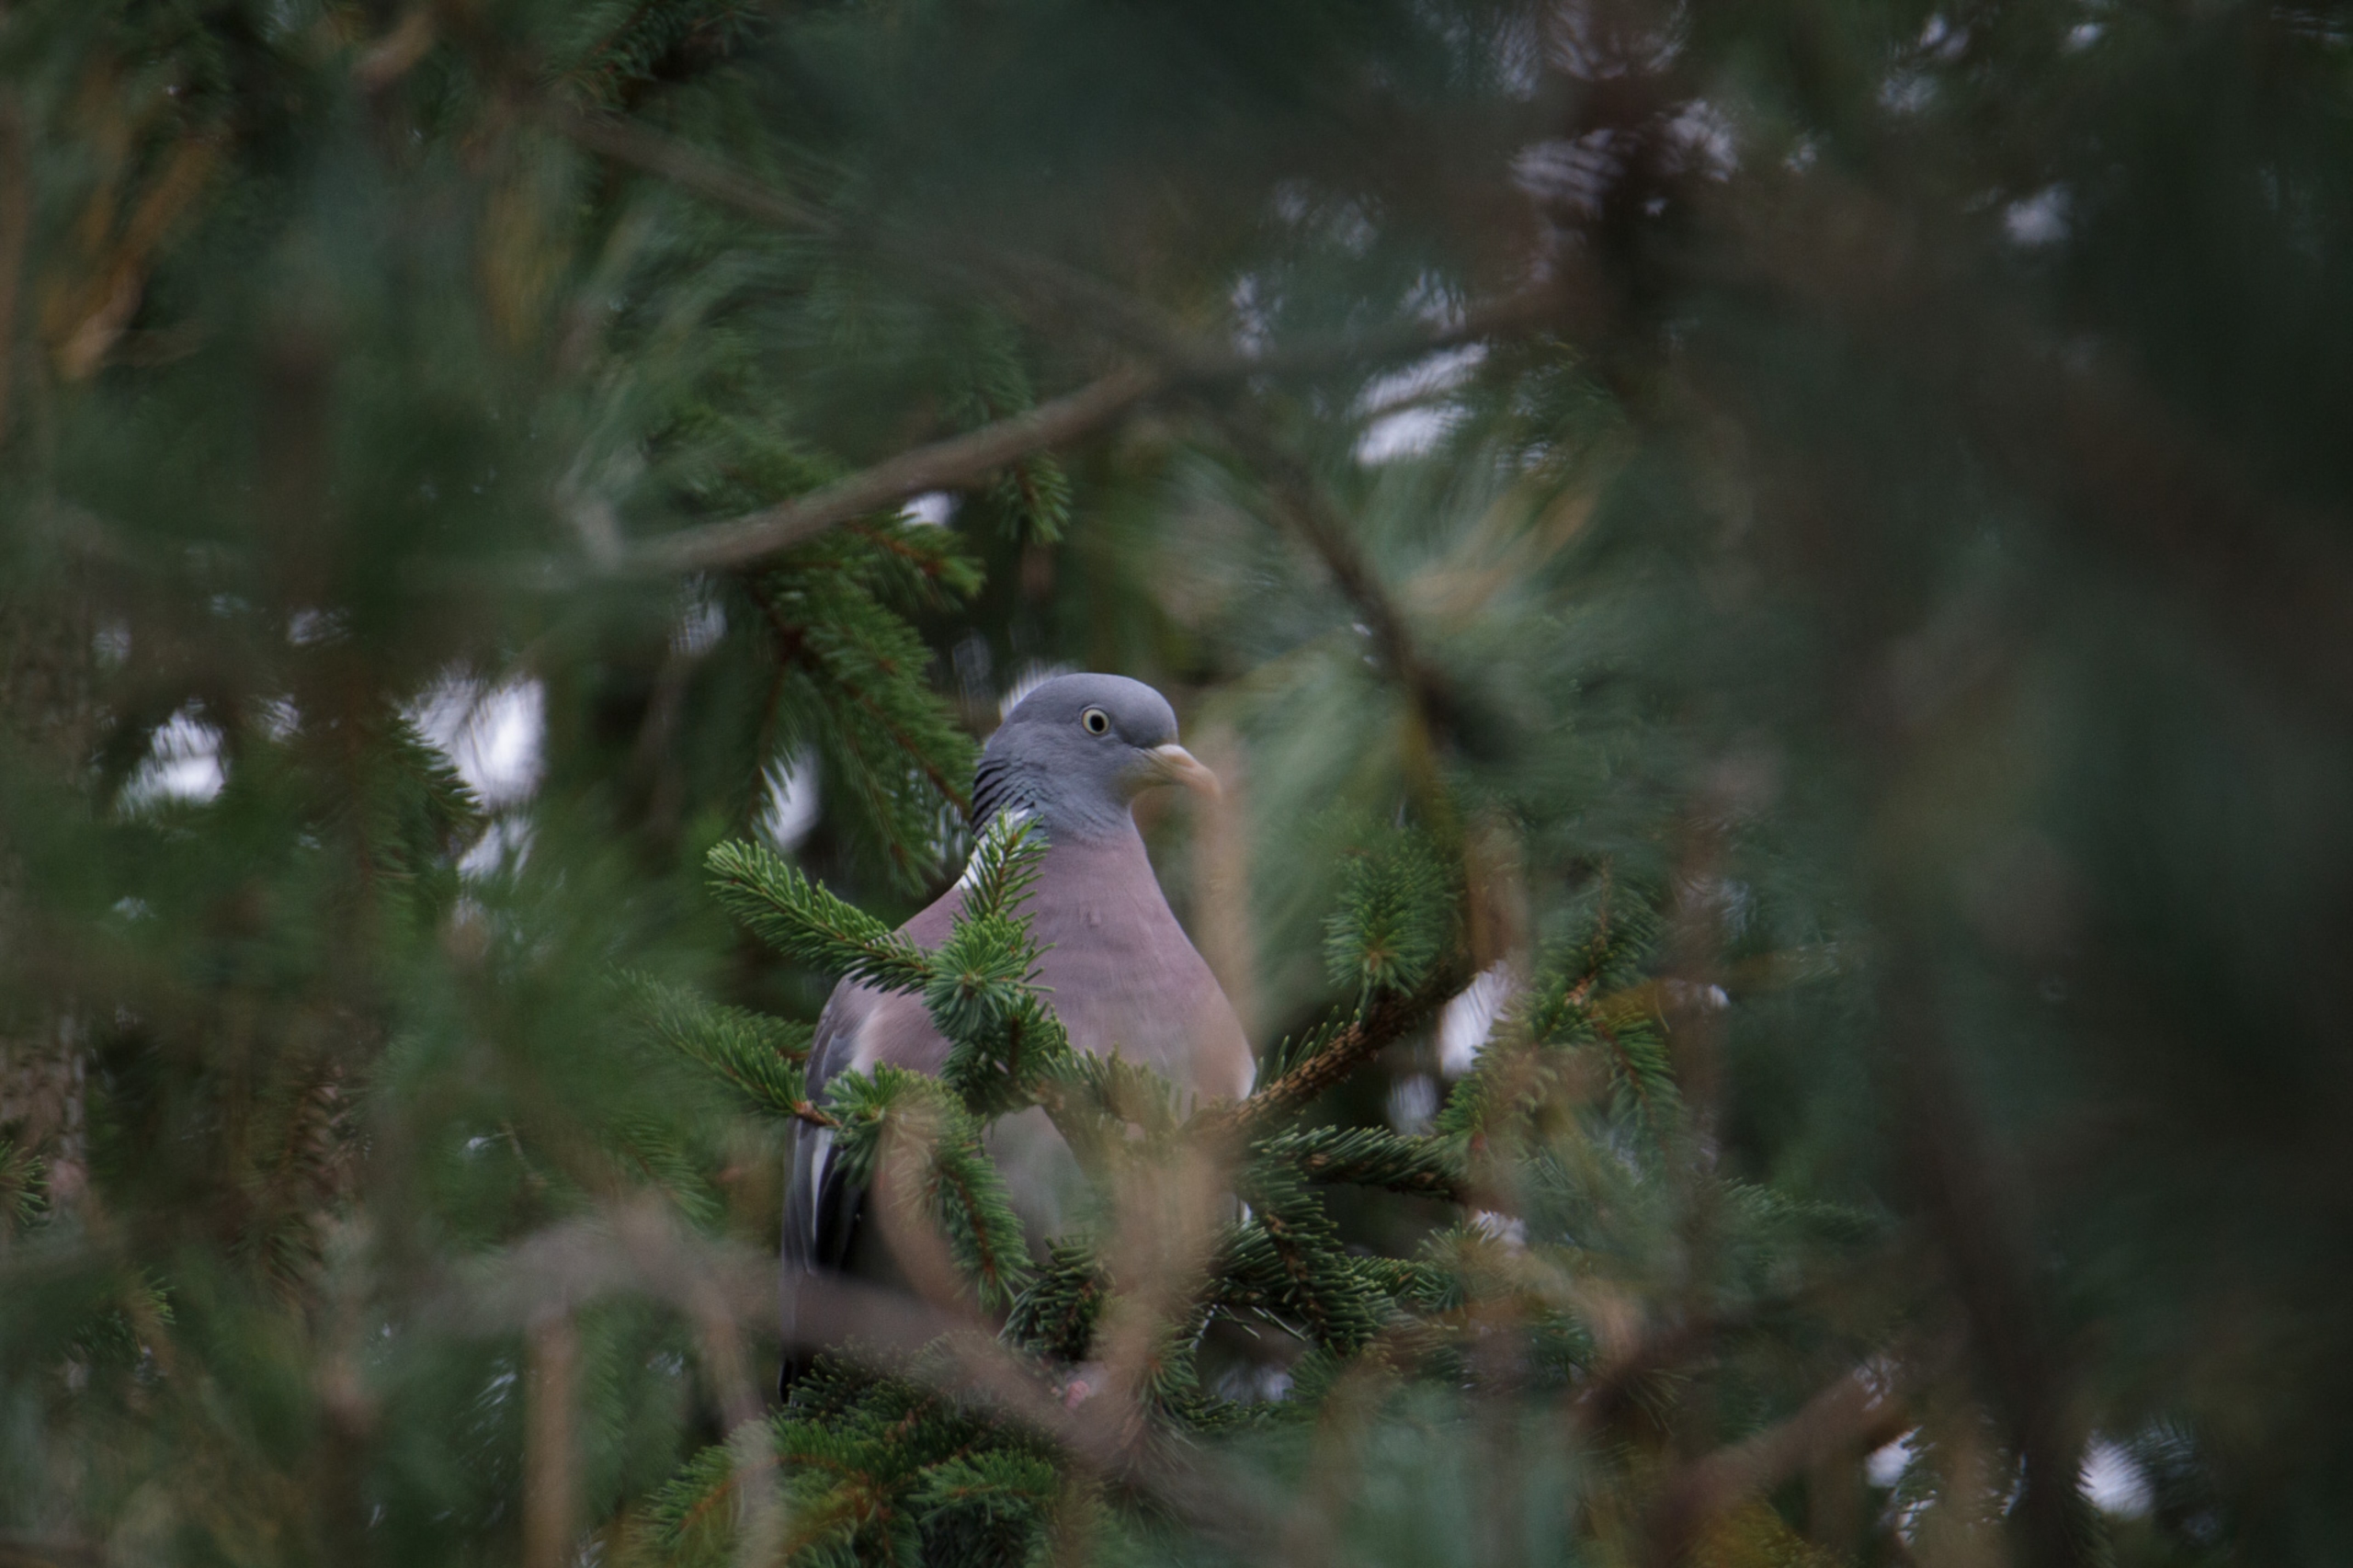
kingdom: Animalia
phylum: Chordata
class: Aves
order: Columbiformes
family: Columbidae
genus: Columba
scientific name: Columba palumbus
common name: Ringdue
